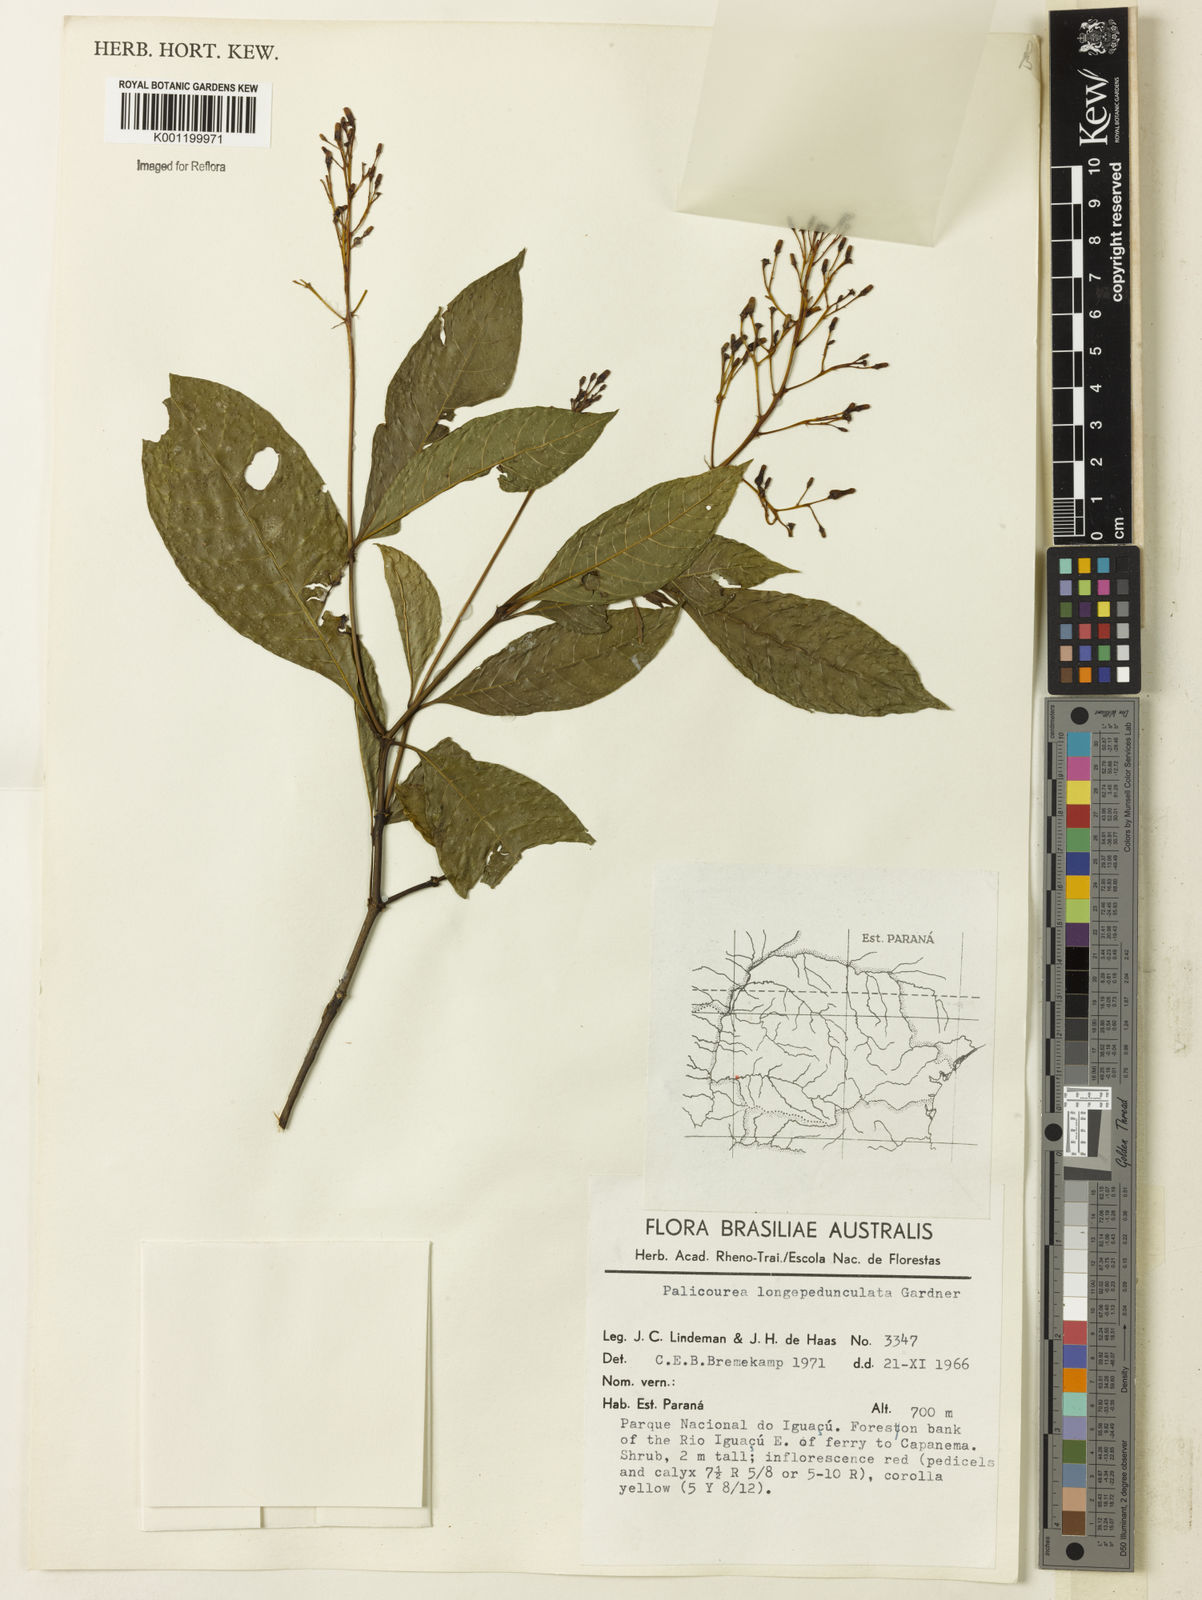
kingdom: Plantae
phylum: Tracheophyta
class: Magnoliopsida
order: Gentianales
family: Rubiaceae
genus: Palicourea
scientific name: Palicourea longipedunculata
